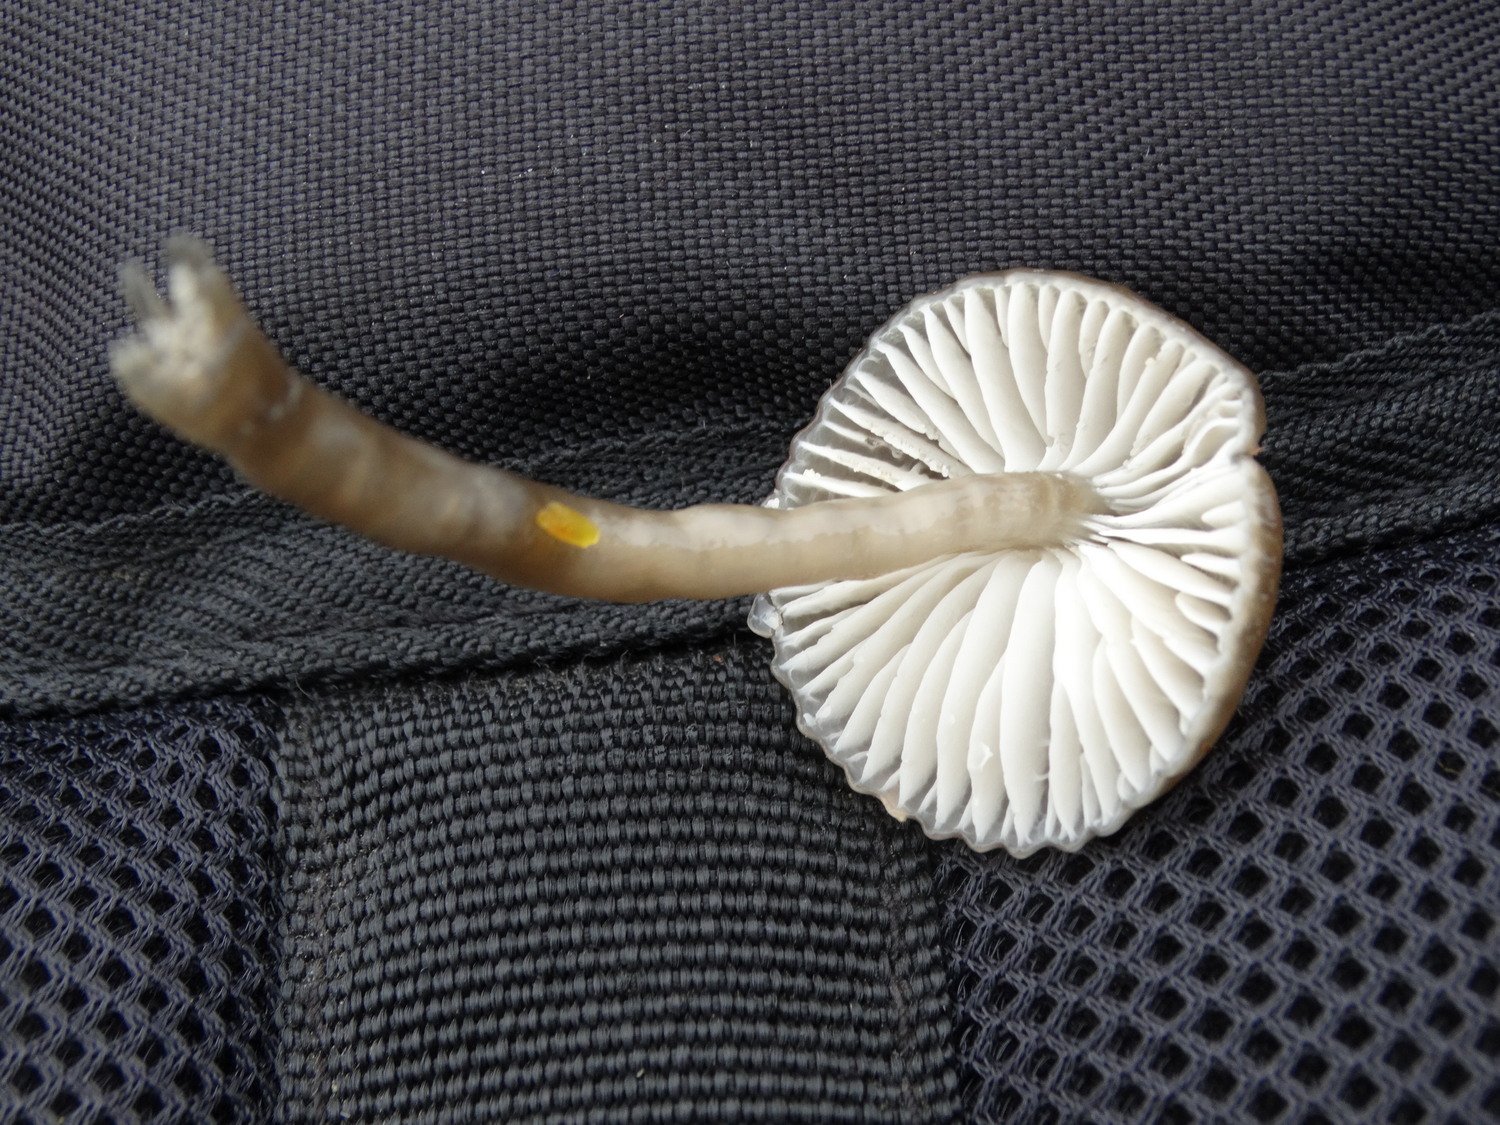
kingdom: Fungi
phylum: Basidiomycota
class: Agaricomycetes
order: Agaricales
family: Hygrophoraceae
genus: Gliophorus
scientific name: Gliophorus irrigatus
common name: slimet vokshat
